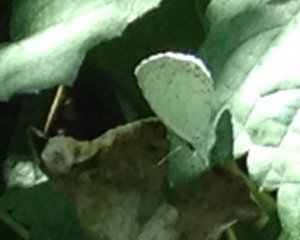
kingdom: Animalia
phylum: Arthropoda
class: Insecta
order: Lepidoptera
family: Lycaenidae
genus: Cyaniris
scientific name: Cyaniris neglecta
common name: Summer Azure
